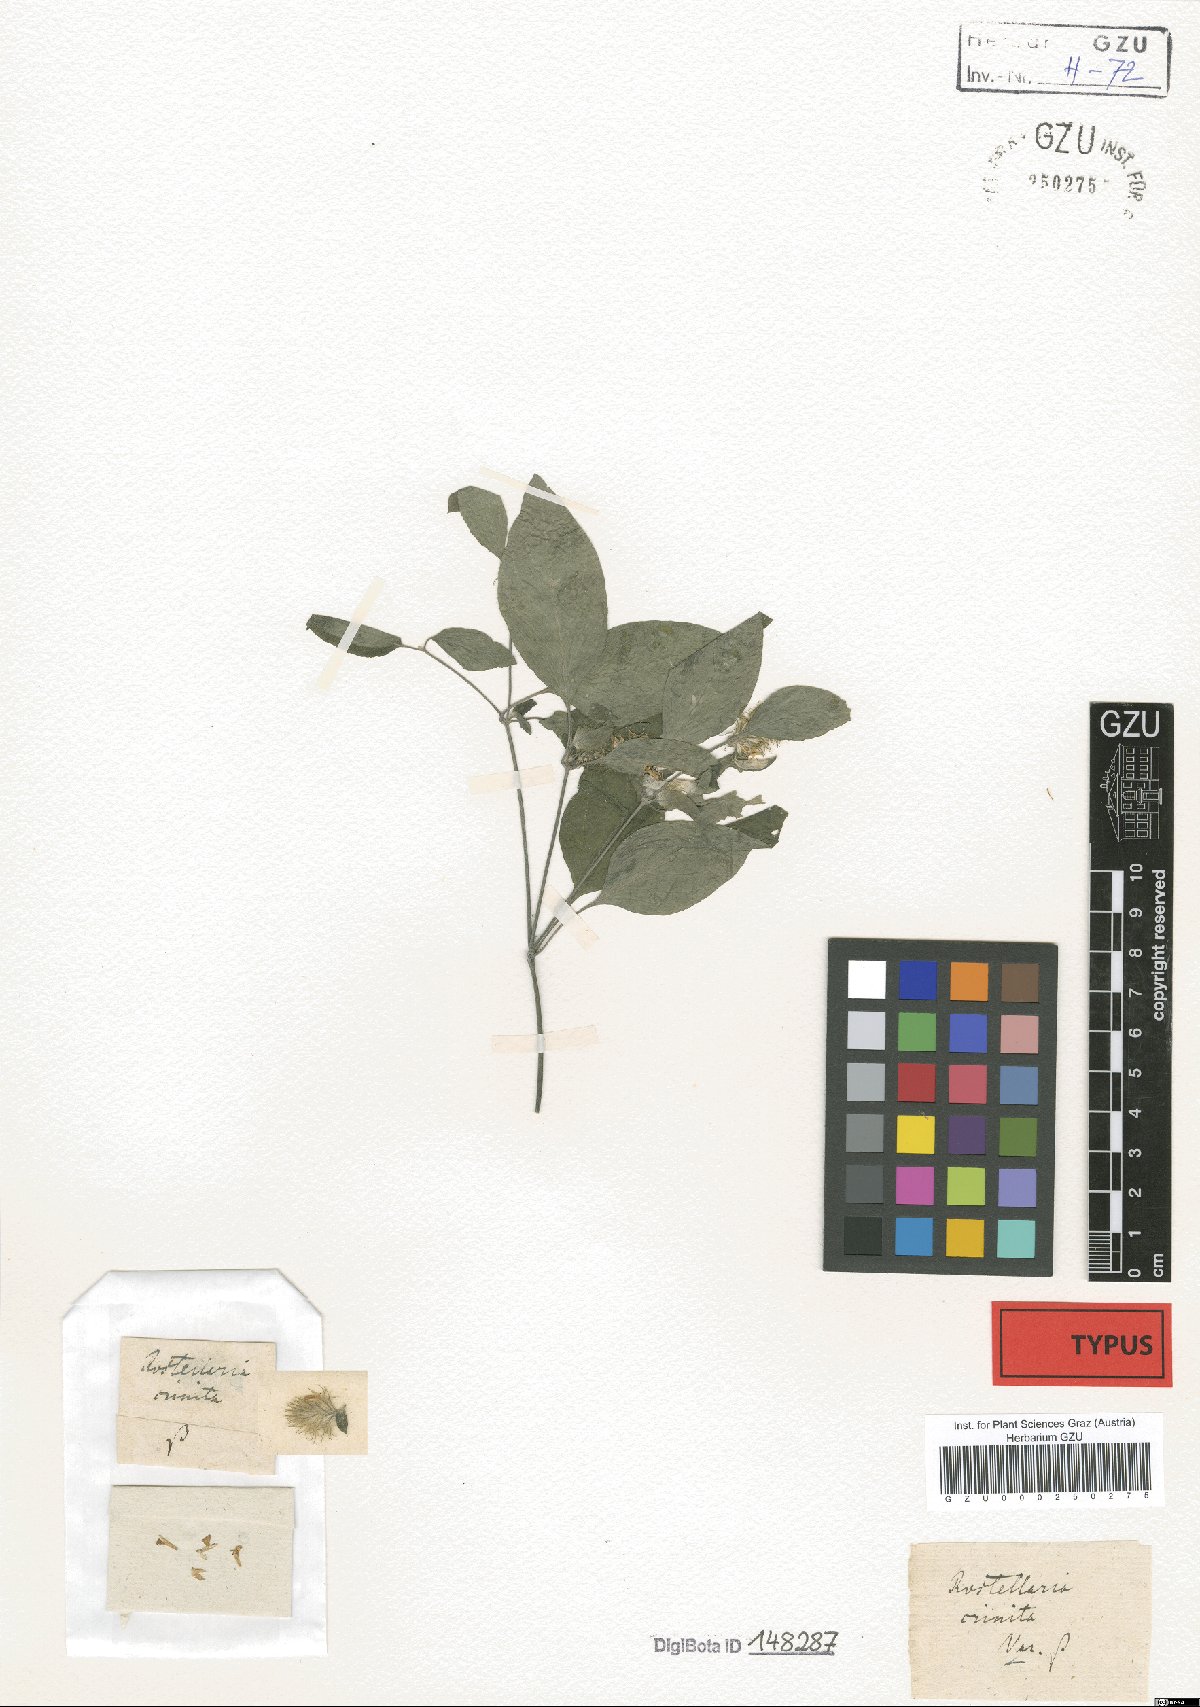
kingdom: Plantae
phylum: Tracheophyta
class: Magnoliopsida
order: Lamiales
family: Acanthaceae
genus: Justicia
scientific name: Justicia micrantha
